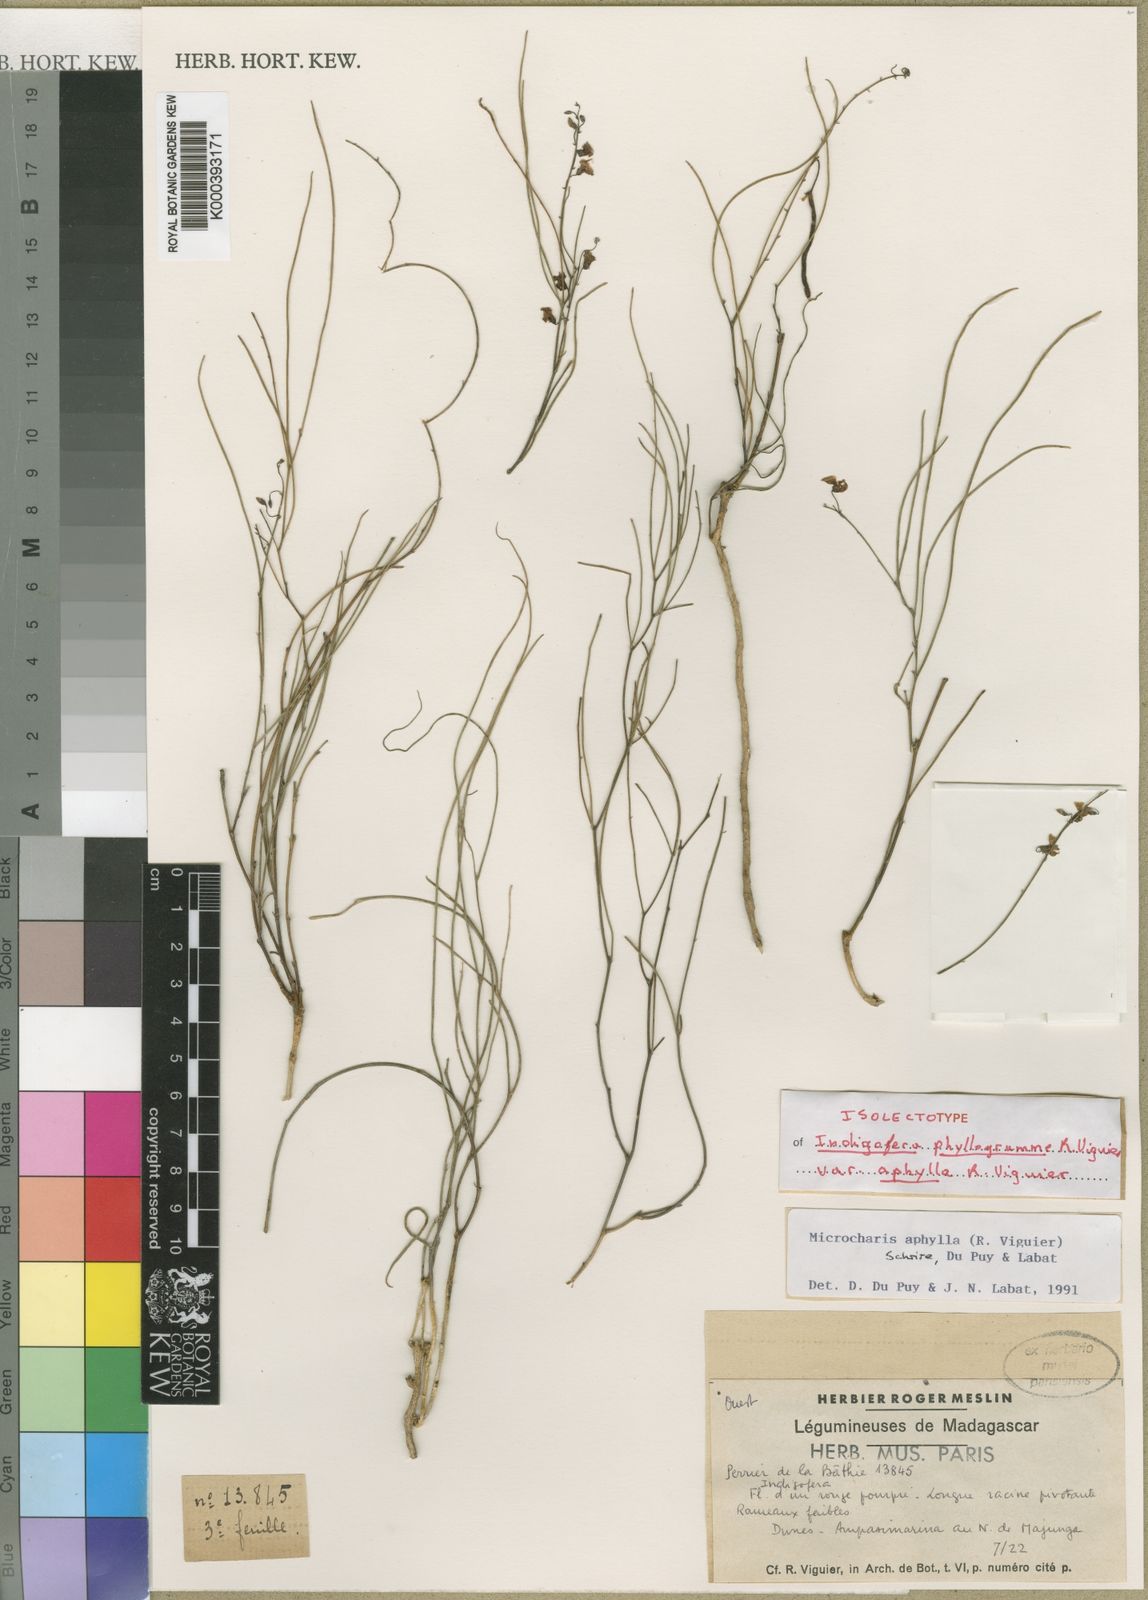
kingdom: Plantae
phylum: Tracheophyta
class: Magnoliopsida
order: Fabales
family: Fabaceae
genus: Microcharis
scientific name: Microcharis phyllogramme
